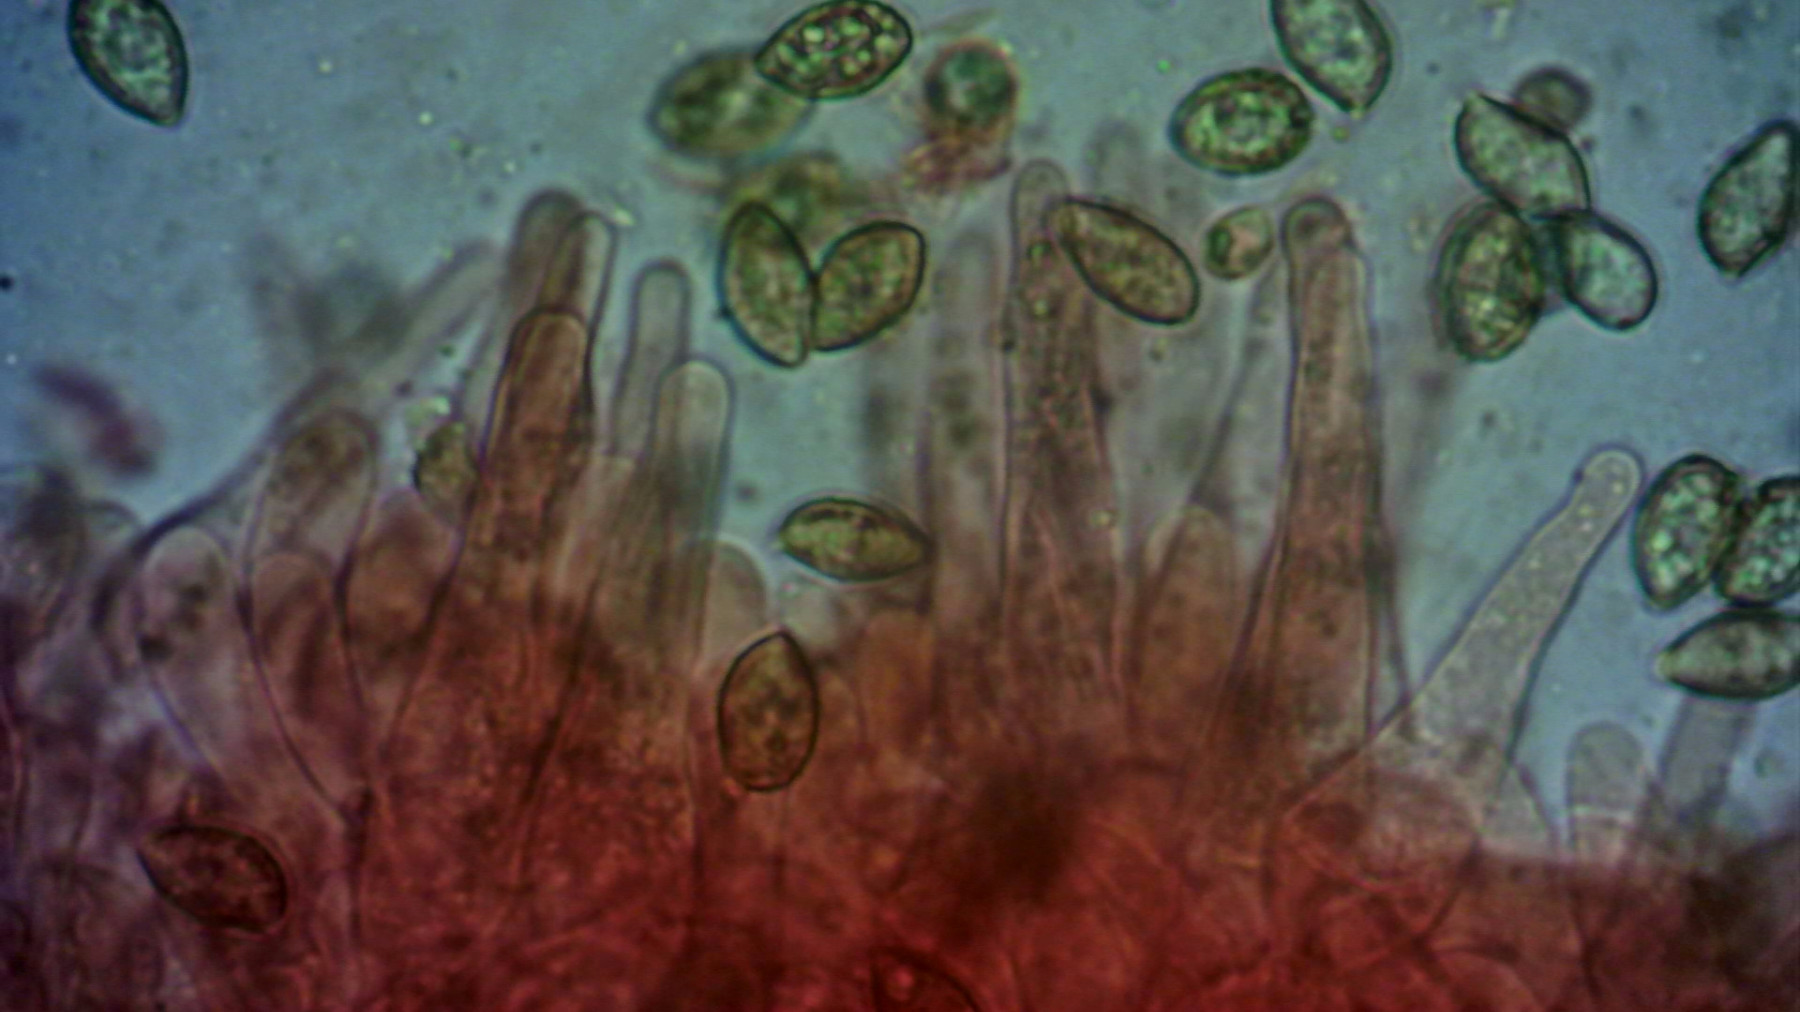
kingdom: Fungi
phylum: Basidiomycota
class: Agaricomycetes
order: Agaricales
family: Hymenogastraceae
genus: Galerina
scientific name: Galerina hypnorum
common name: mos-hjelmhat
